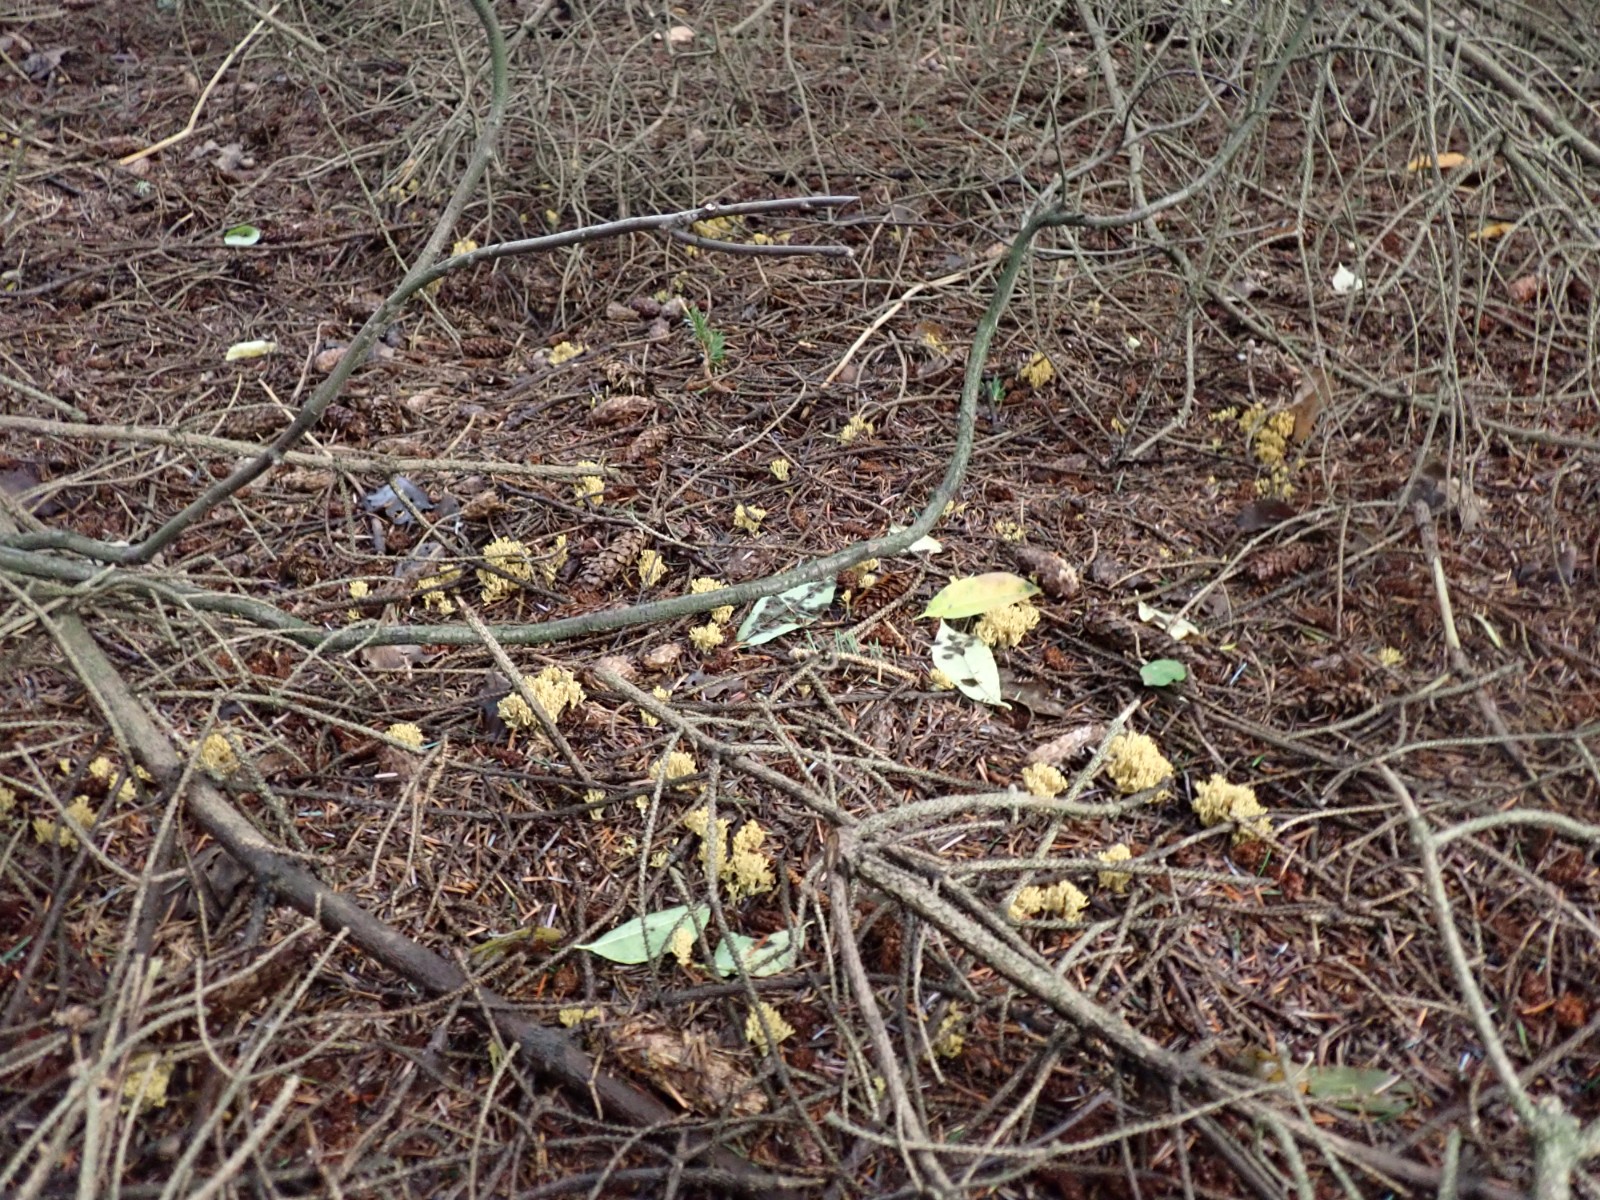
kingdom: Fungi
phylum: Basidiomycota
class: Agaricomycetes
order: Gomphales
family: Gomphaceae
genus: Phaeoclavulina
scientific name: Phaeoclavulina eumorpha
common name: gran-koralsvamp
